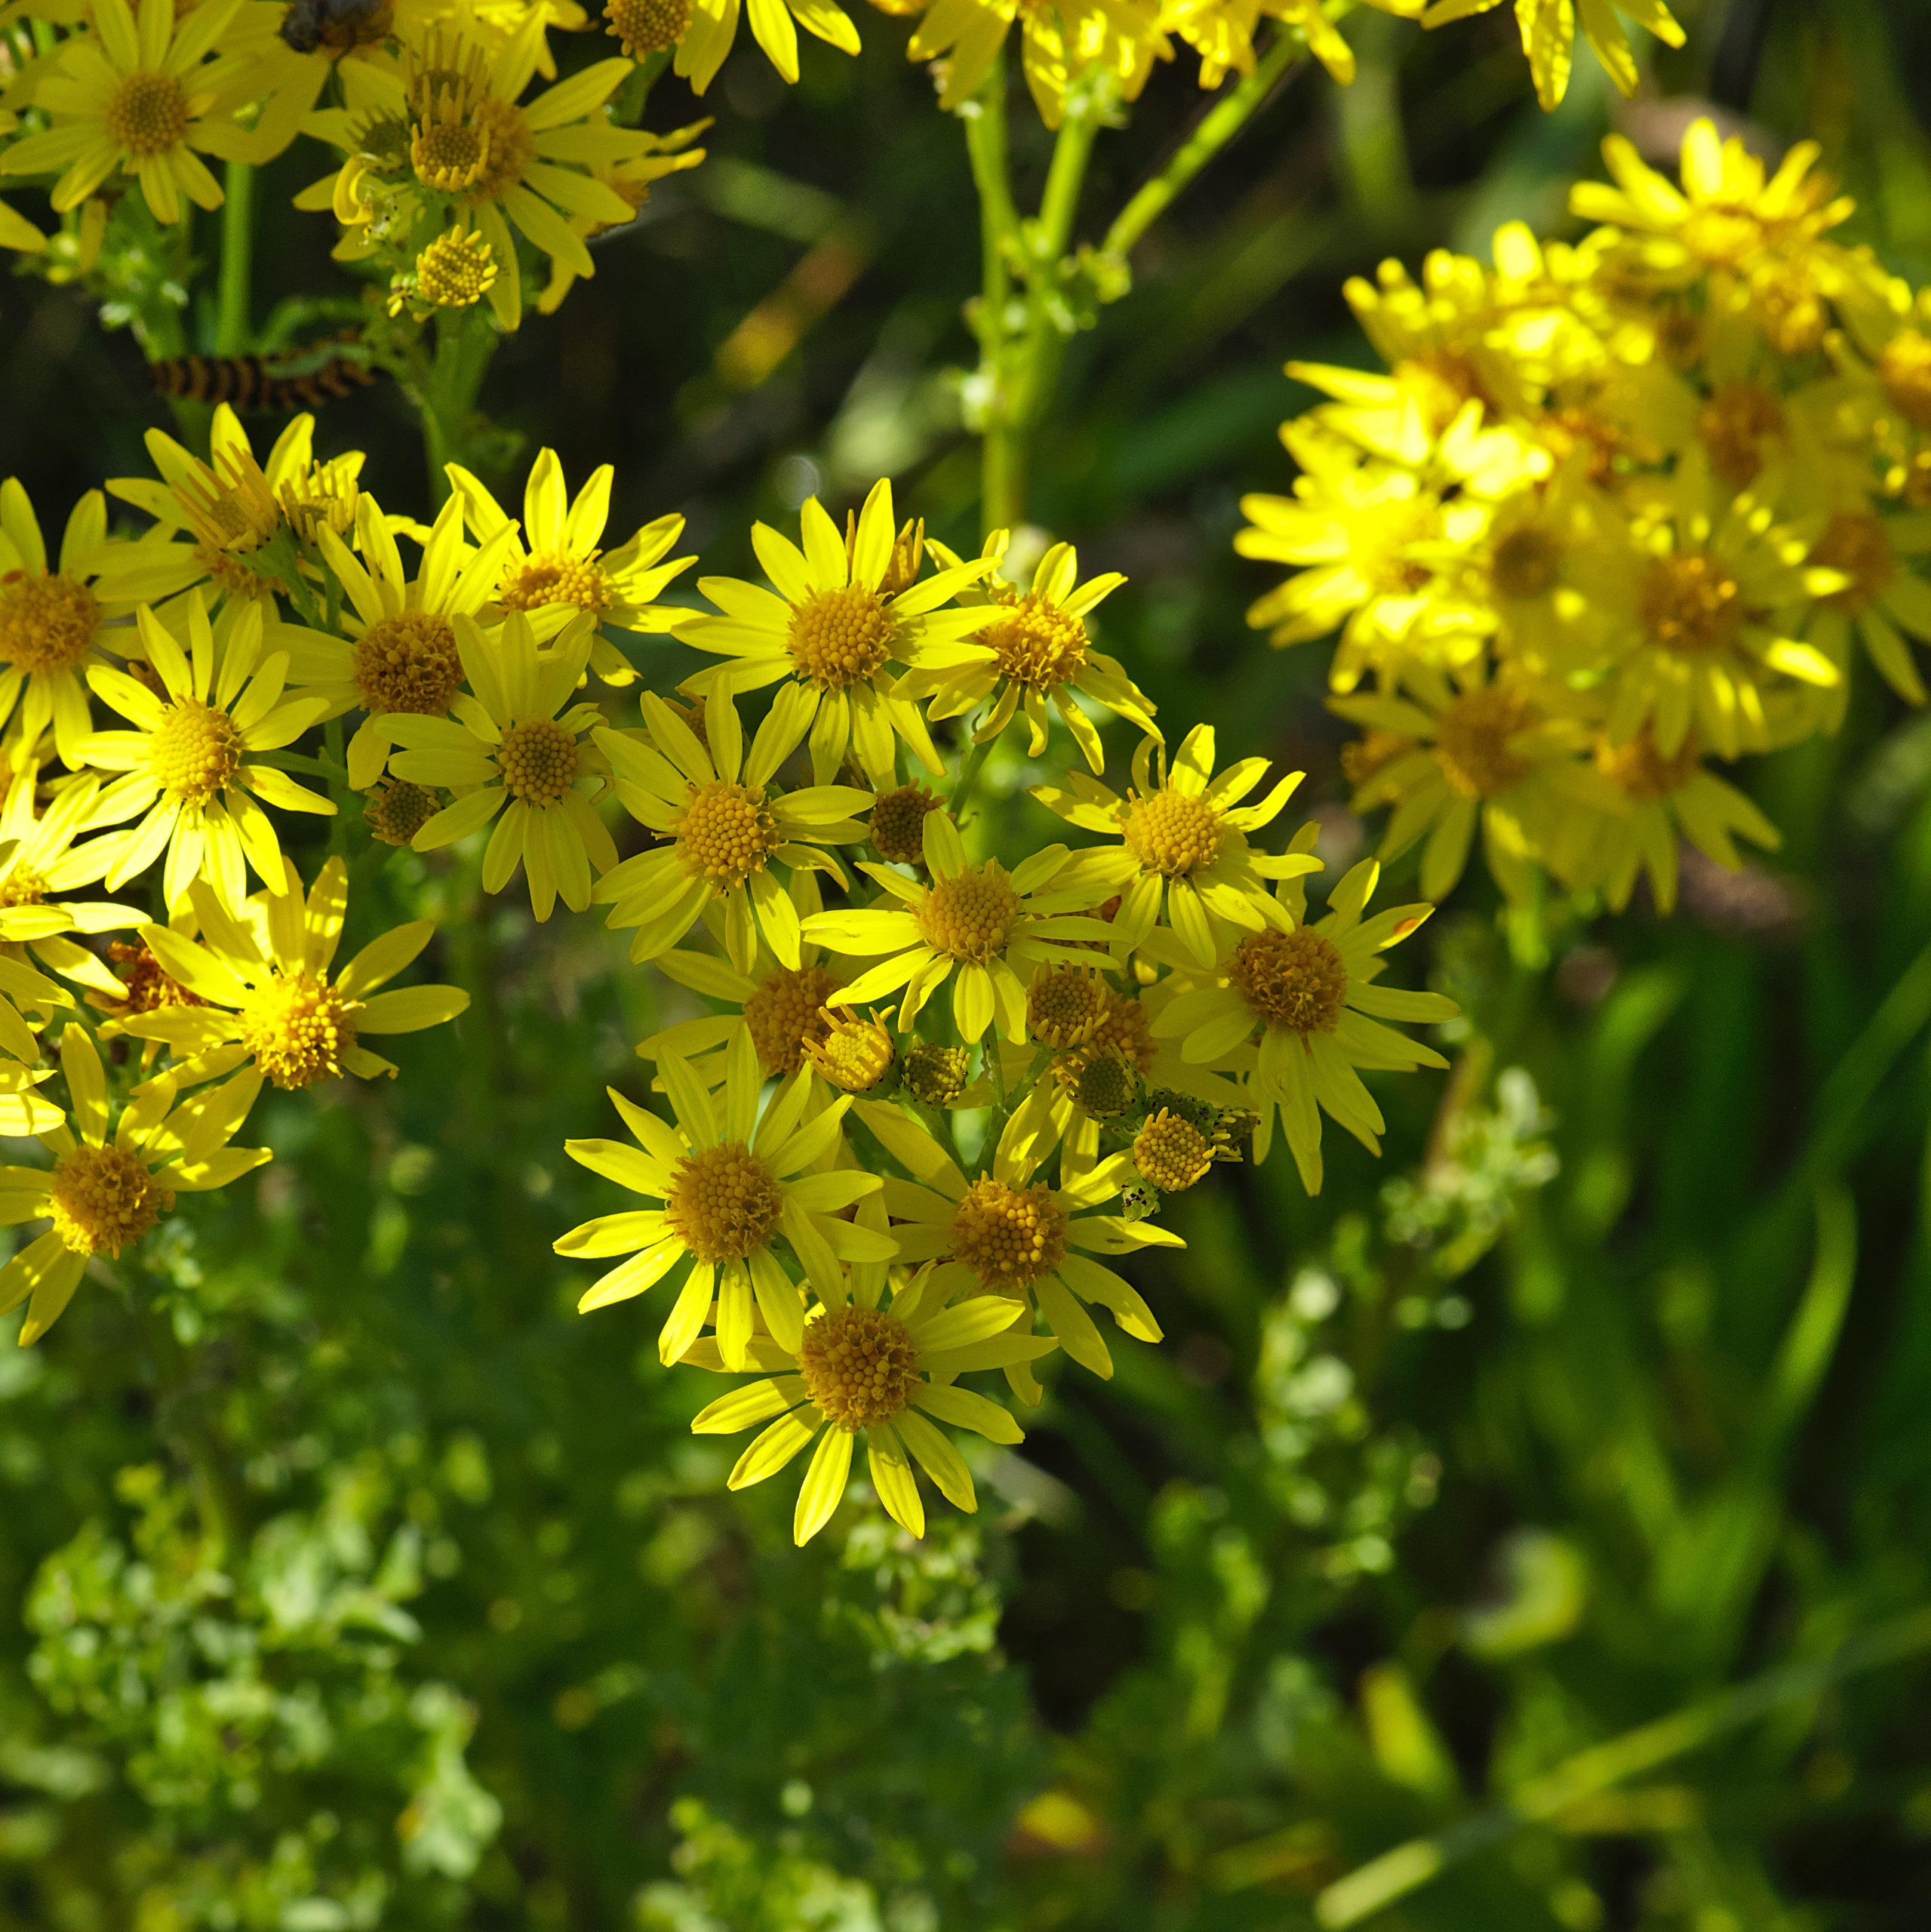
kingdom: Plantae
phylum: Tracheophyta
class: Magnoliopsida
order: Asterales
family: Asteraceae
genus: Jacobaea
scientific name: Jacobaea vulgaris
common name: Eng-brandbæger
